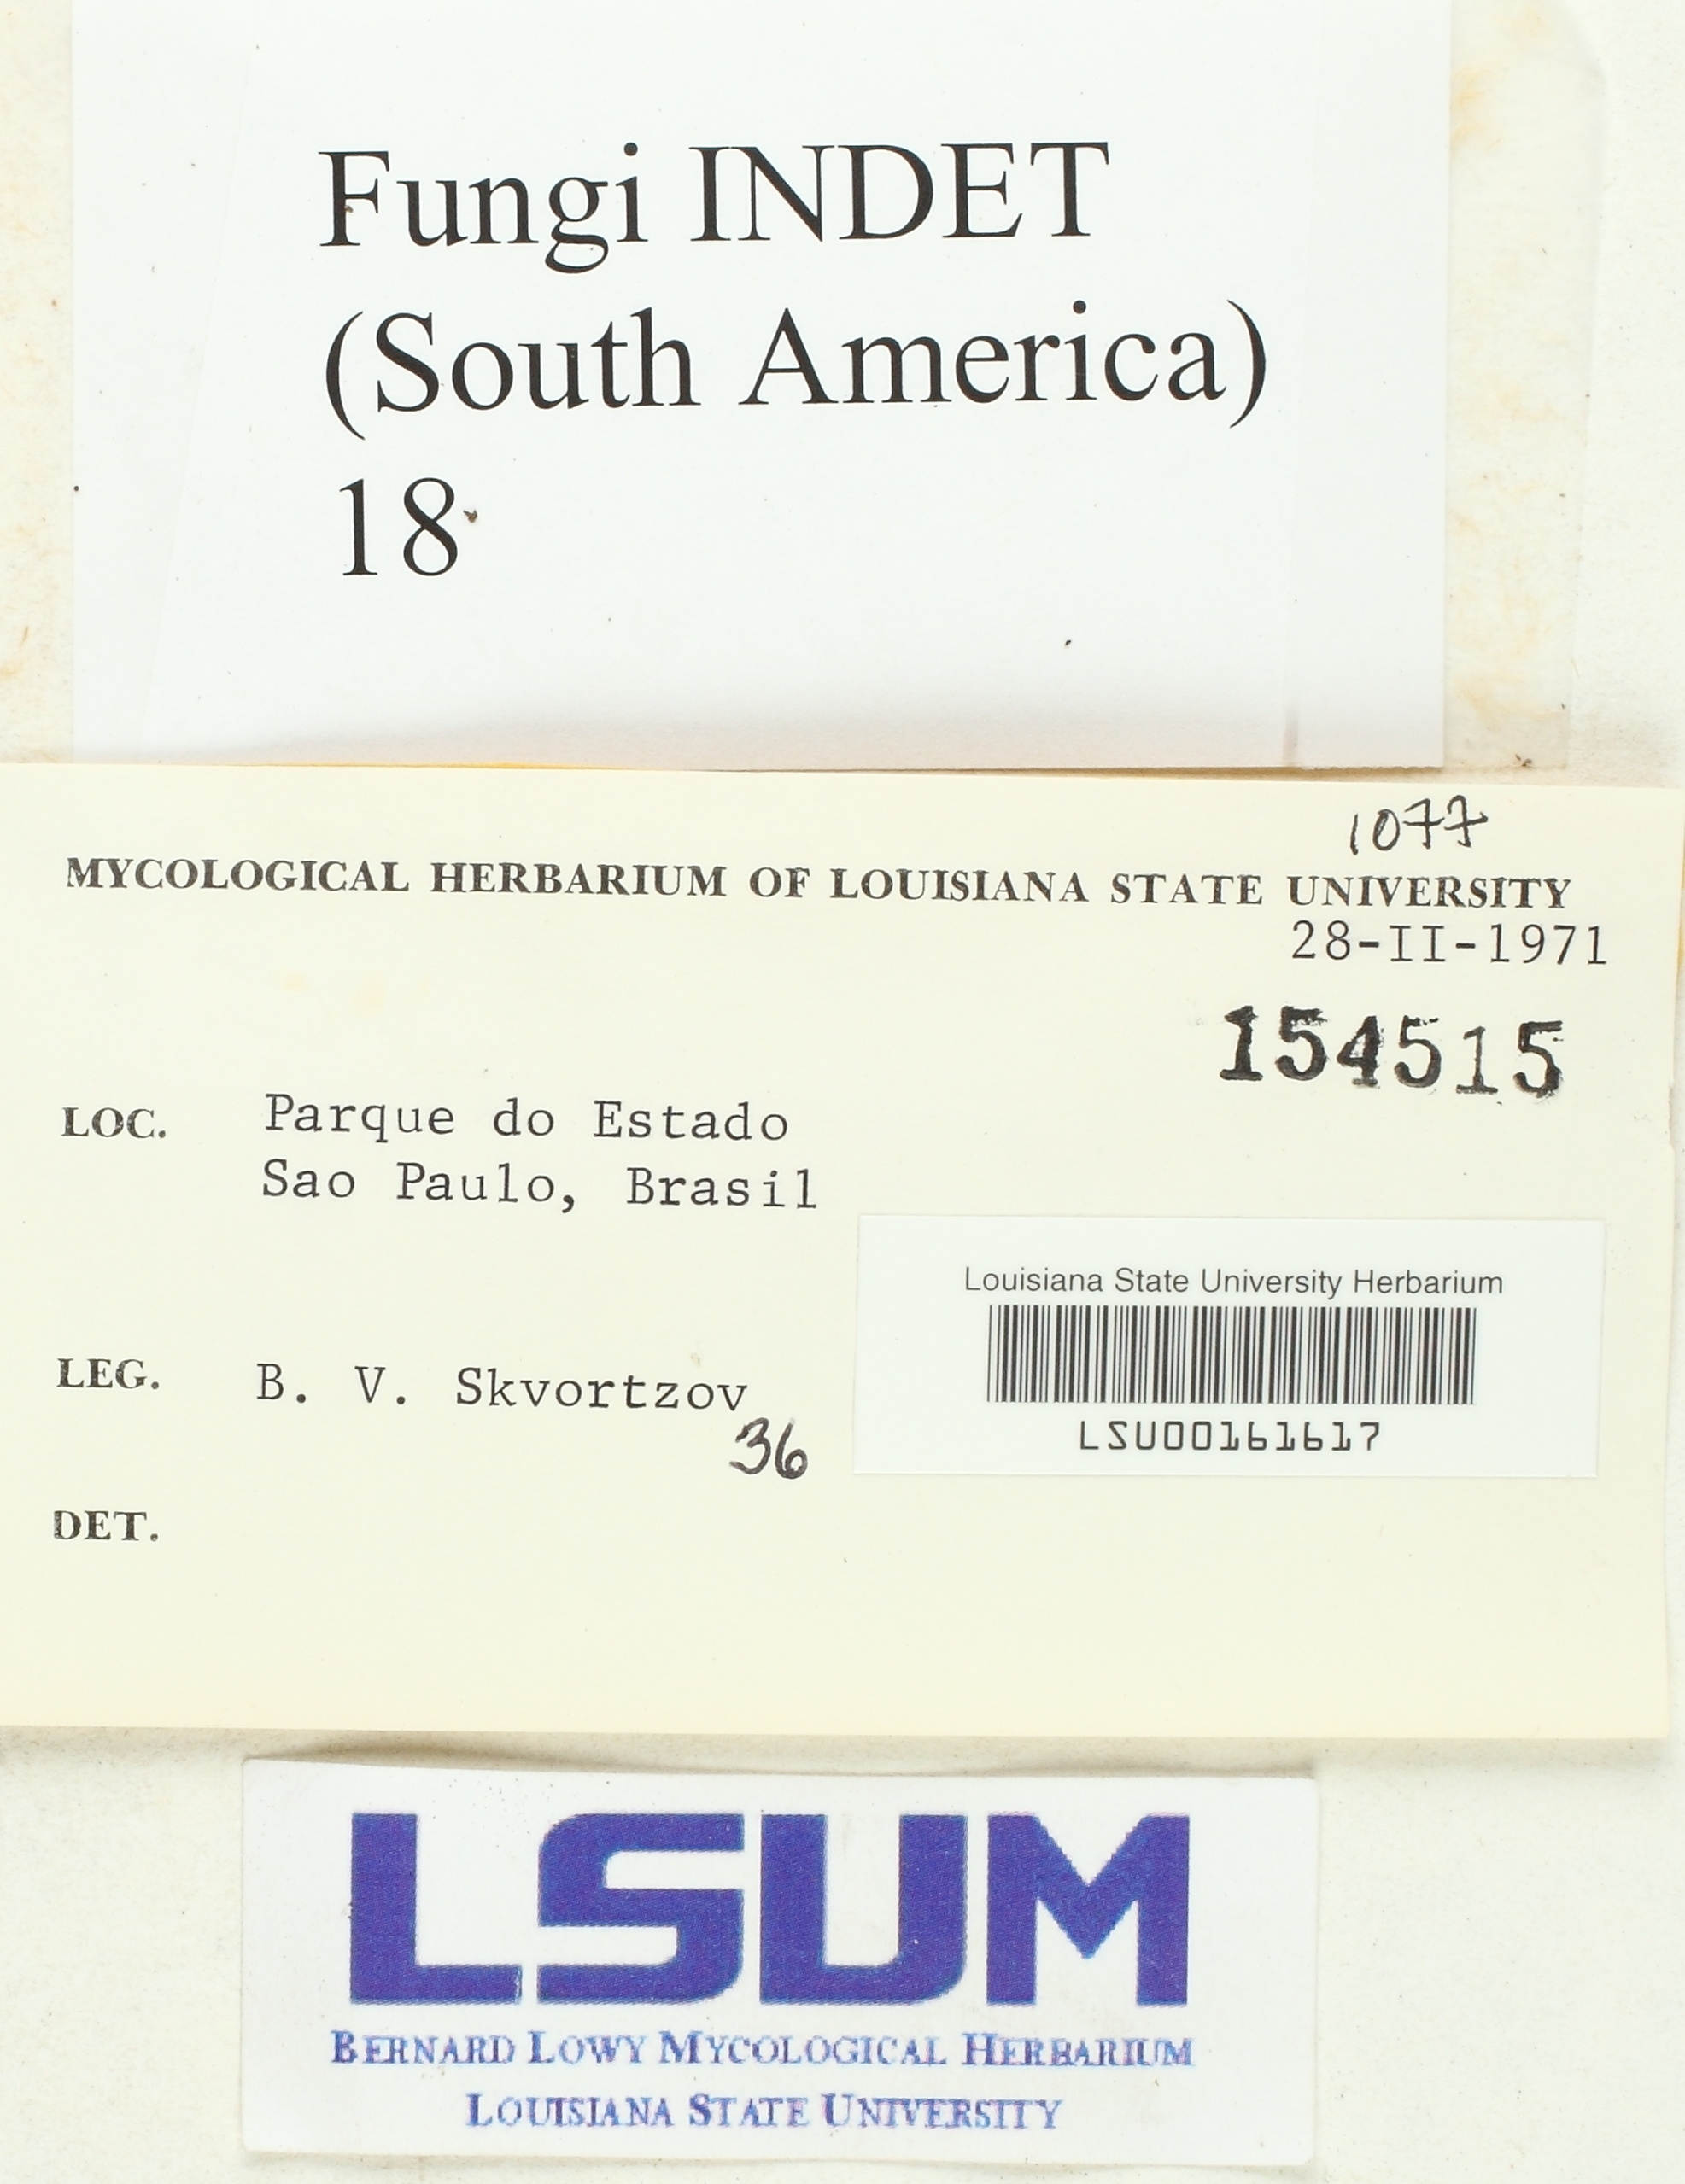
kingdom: Fungi
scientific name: Fungi
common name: Fungi
